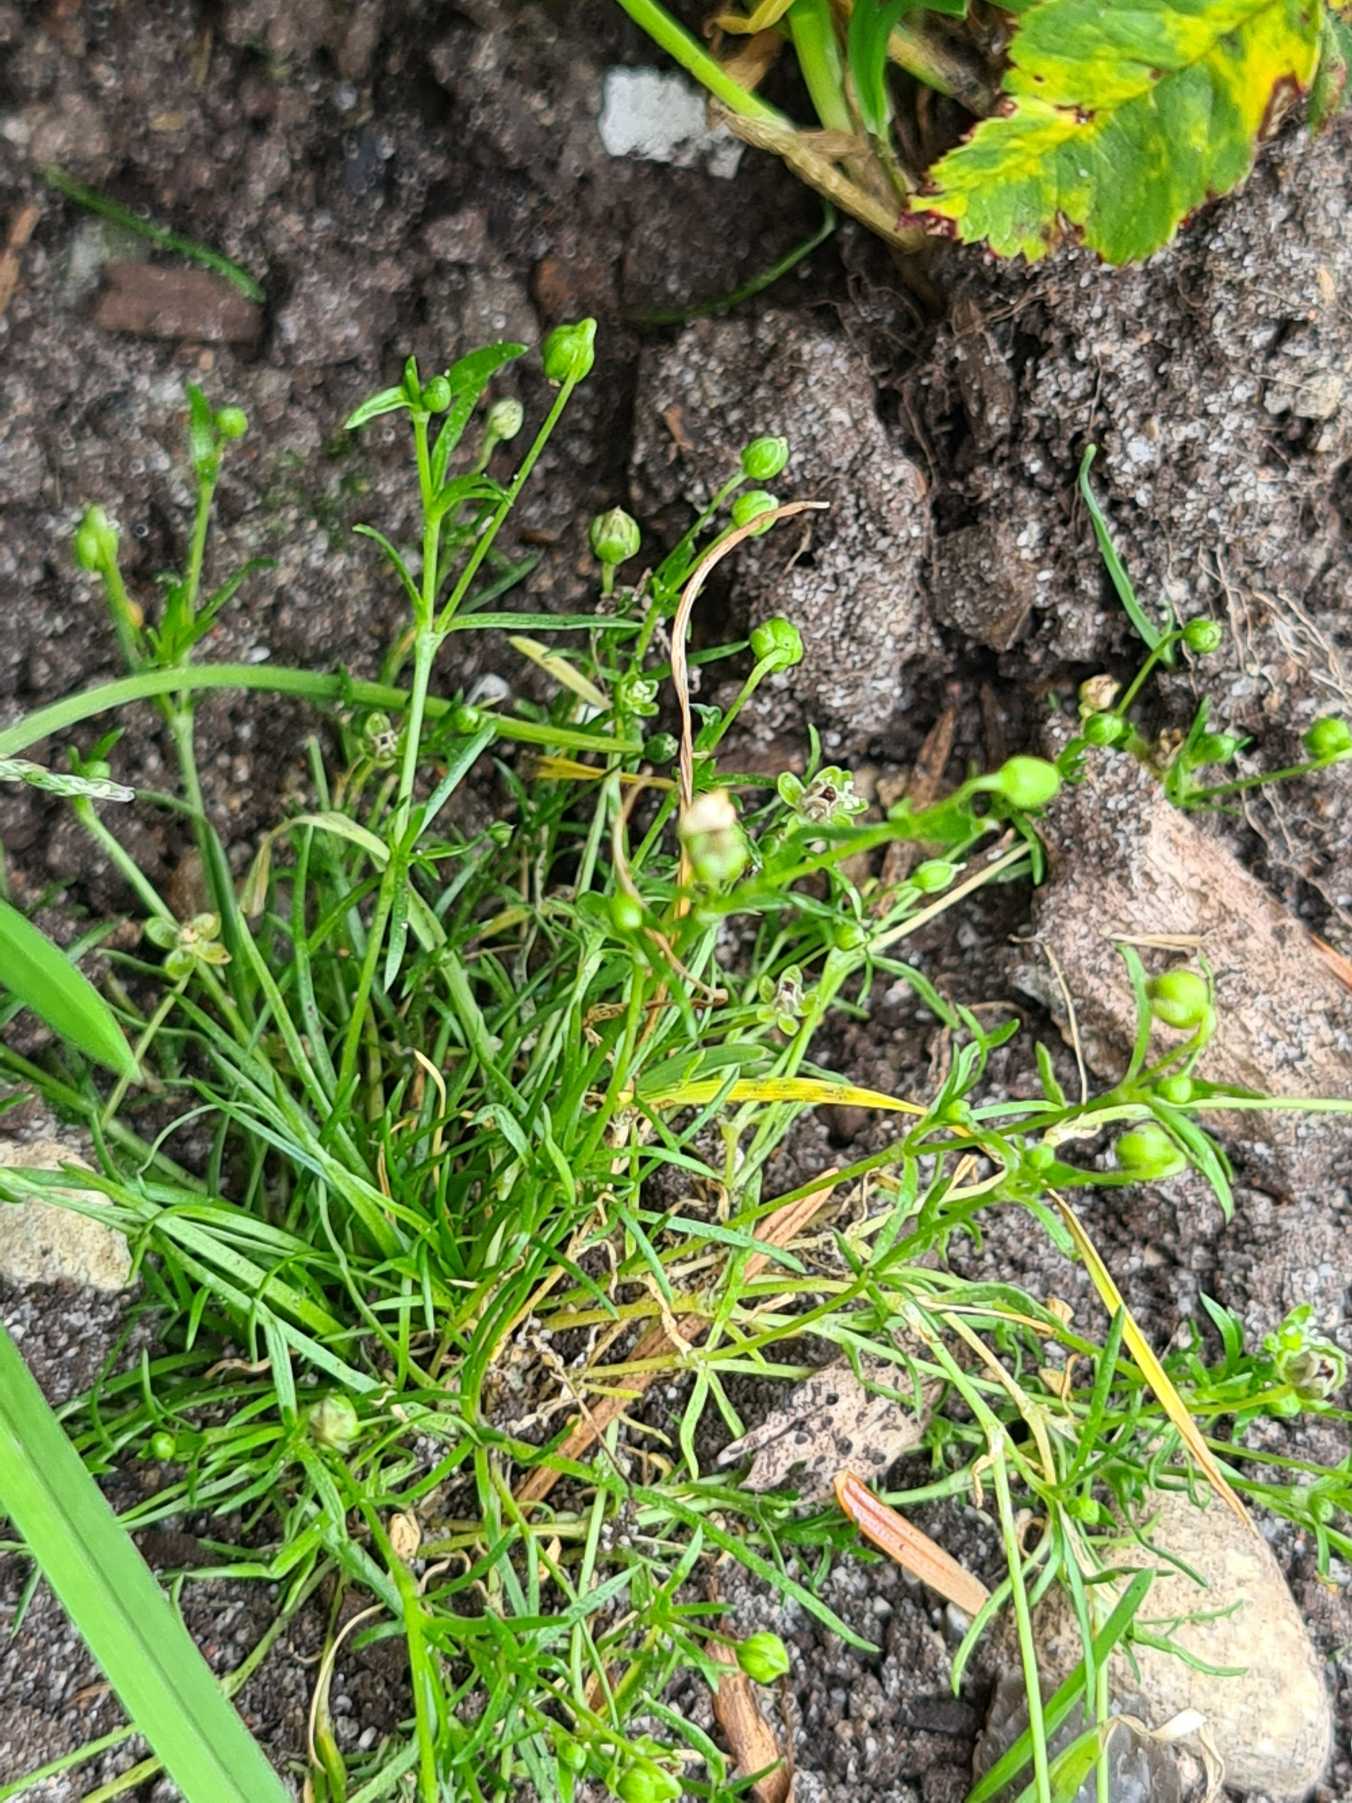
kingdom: Plantae
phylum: Tracheophyta
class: Magnoliopsida
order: Caryophyllales
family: Caryophyllaceae
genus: Sagina
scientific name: Sagina procumbens
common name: Almindelig firling
